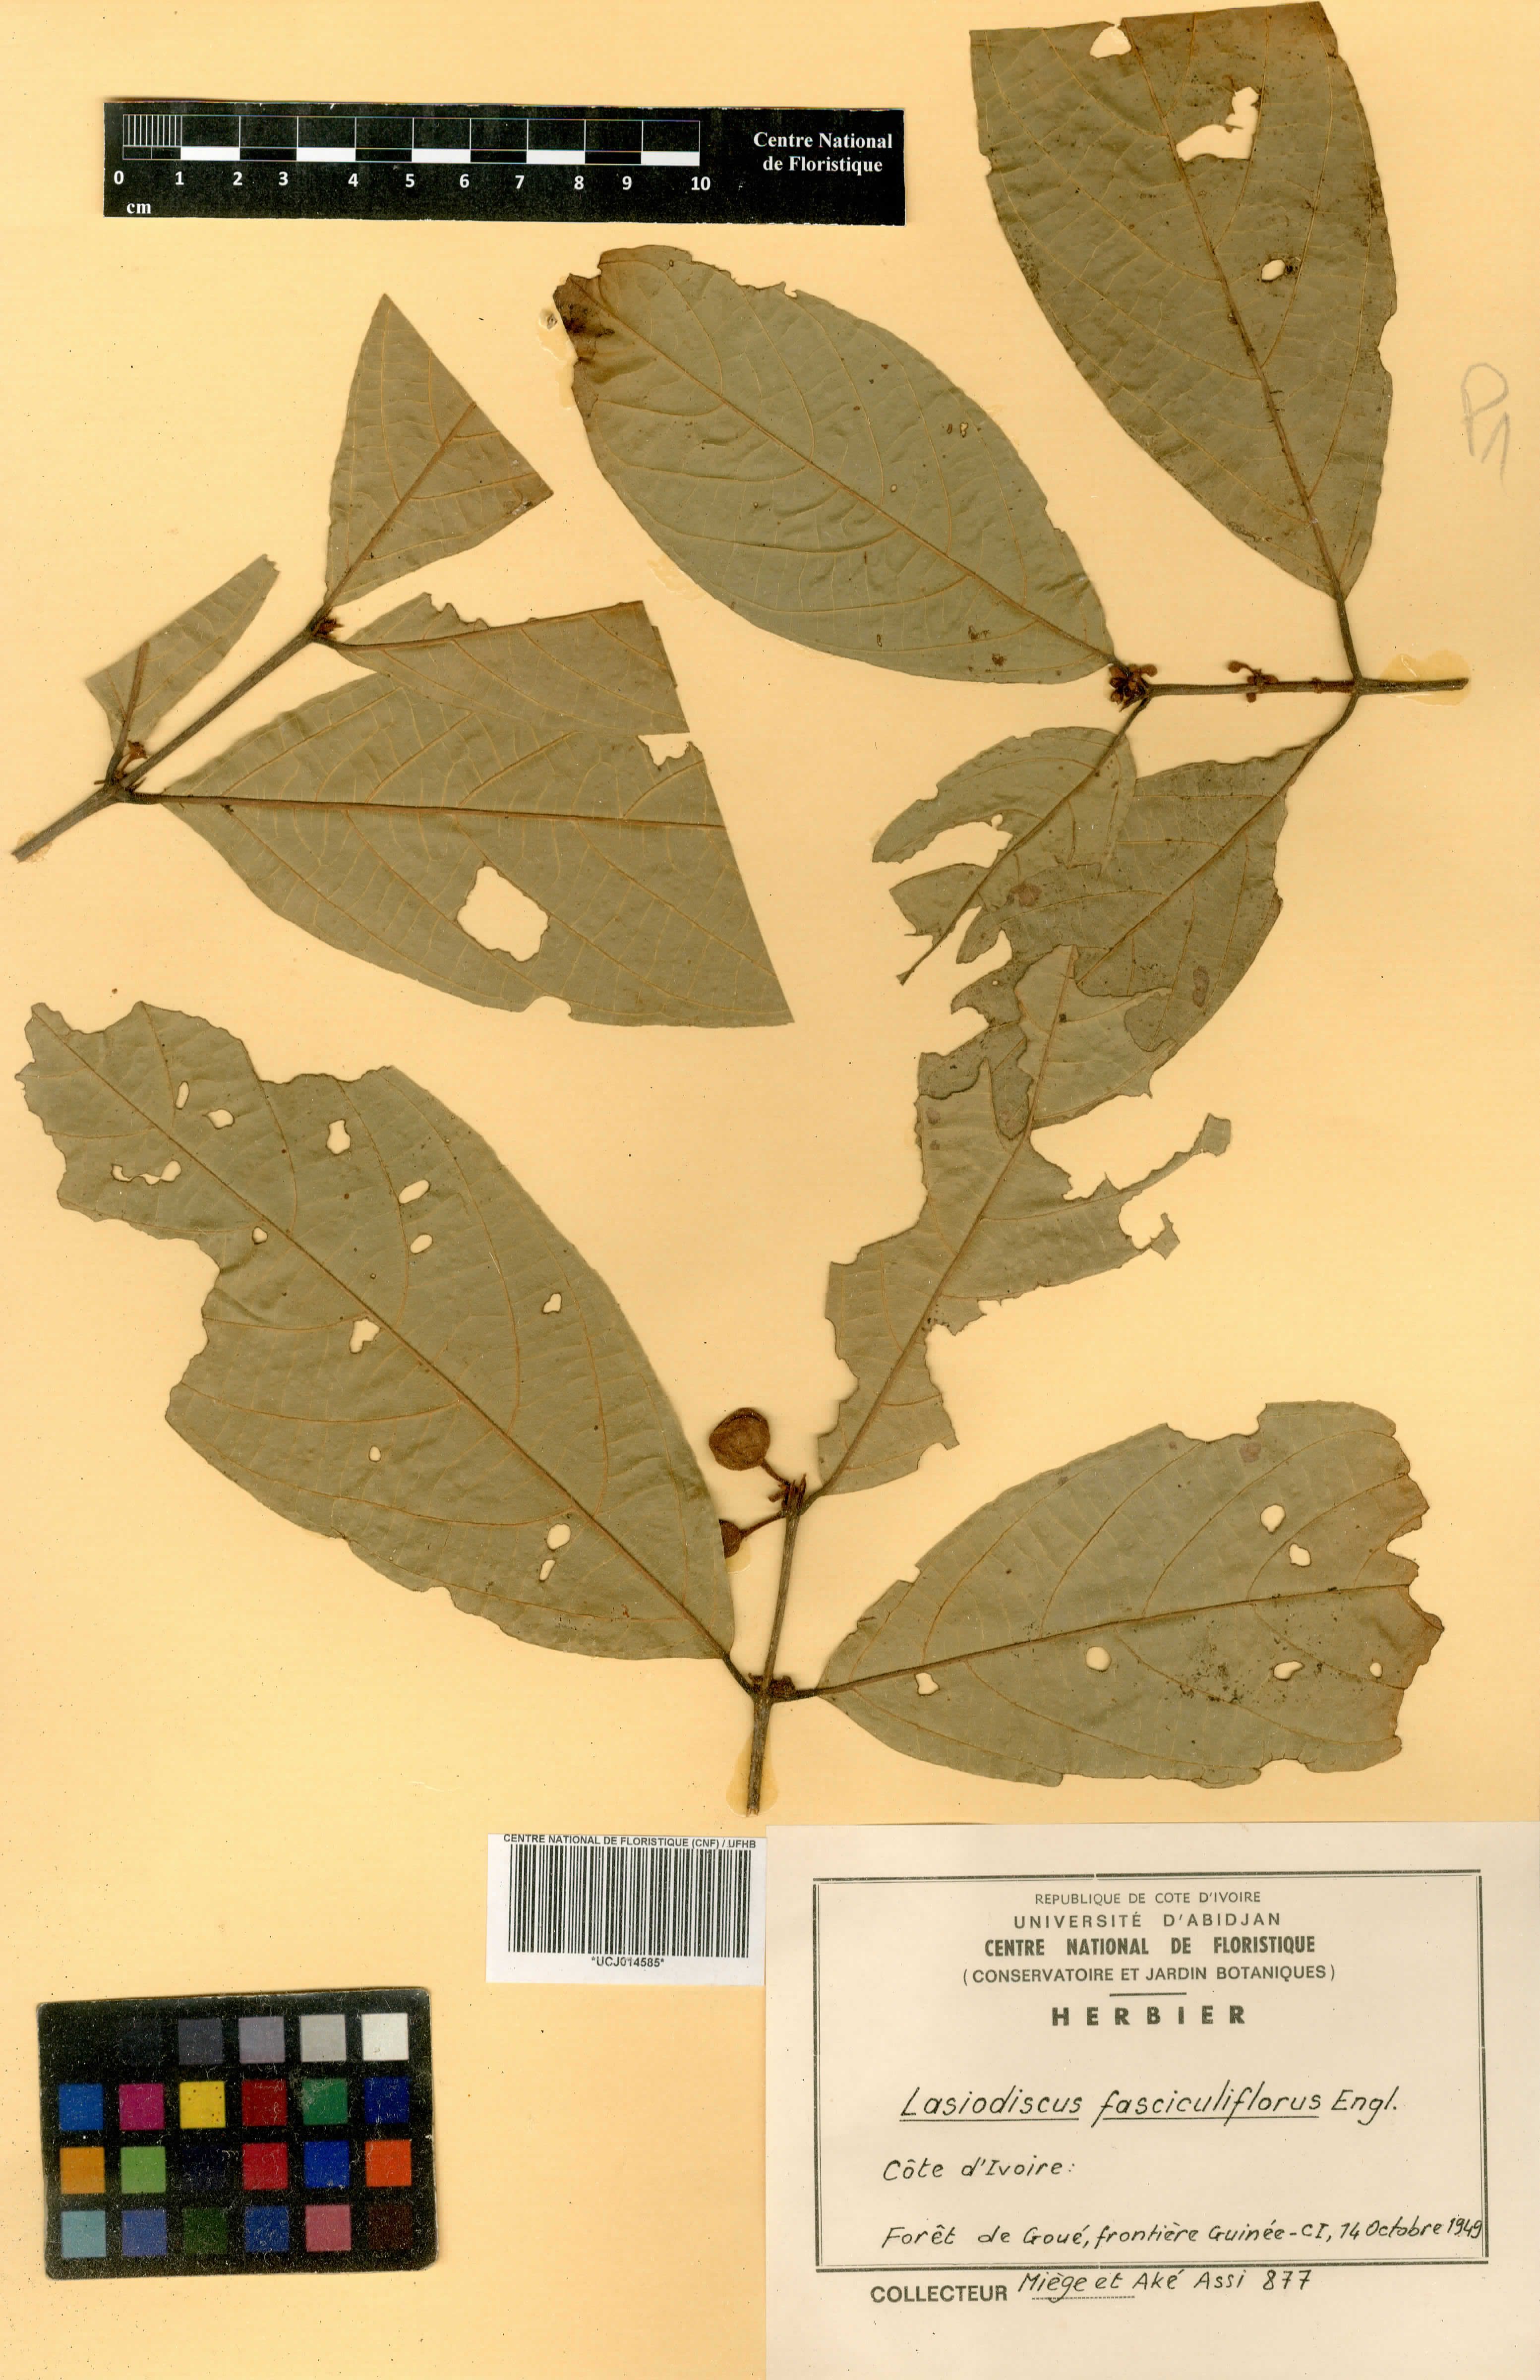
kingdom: Plantae
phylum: Tracheophyta
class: Magnoliopsida
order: Rosales
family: Rhamnaceae
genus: Lasiodiscus
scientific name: Lasiodiscus fasciculiflorus
